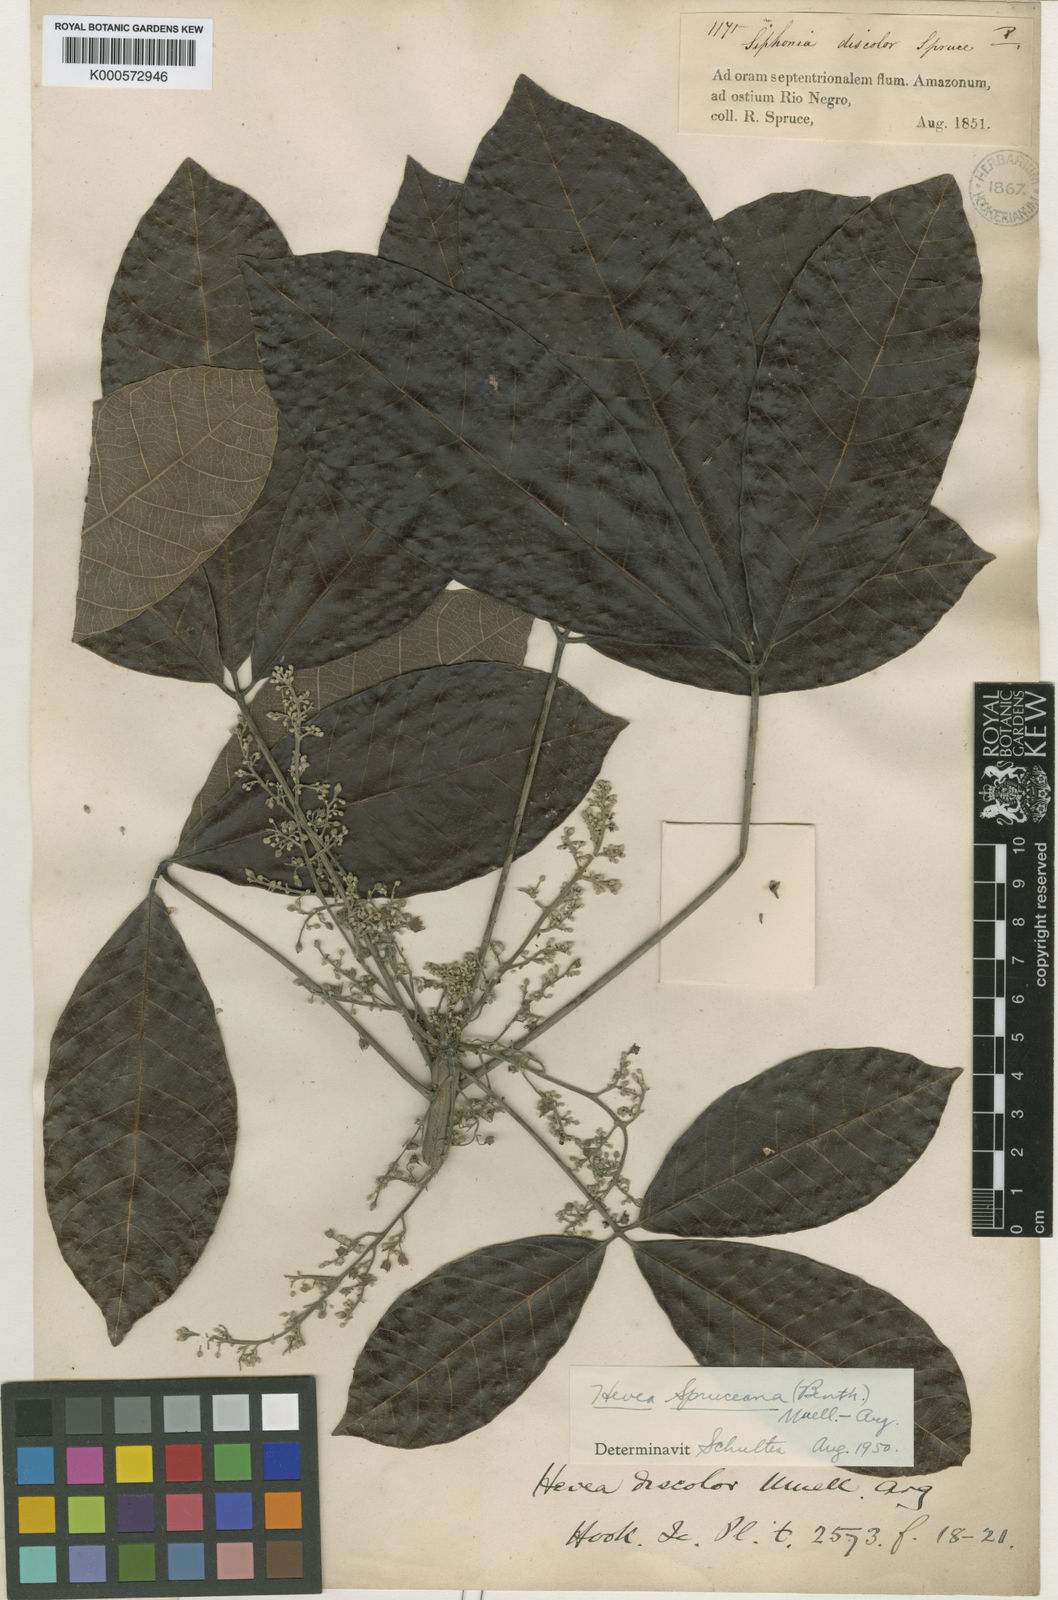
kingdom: Plantae
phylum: Tracheophyta
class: Magnoliopsida
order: Malpighiales
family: Euphorbiaceae
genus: Hevea
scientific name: Hevea
